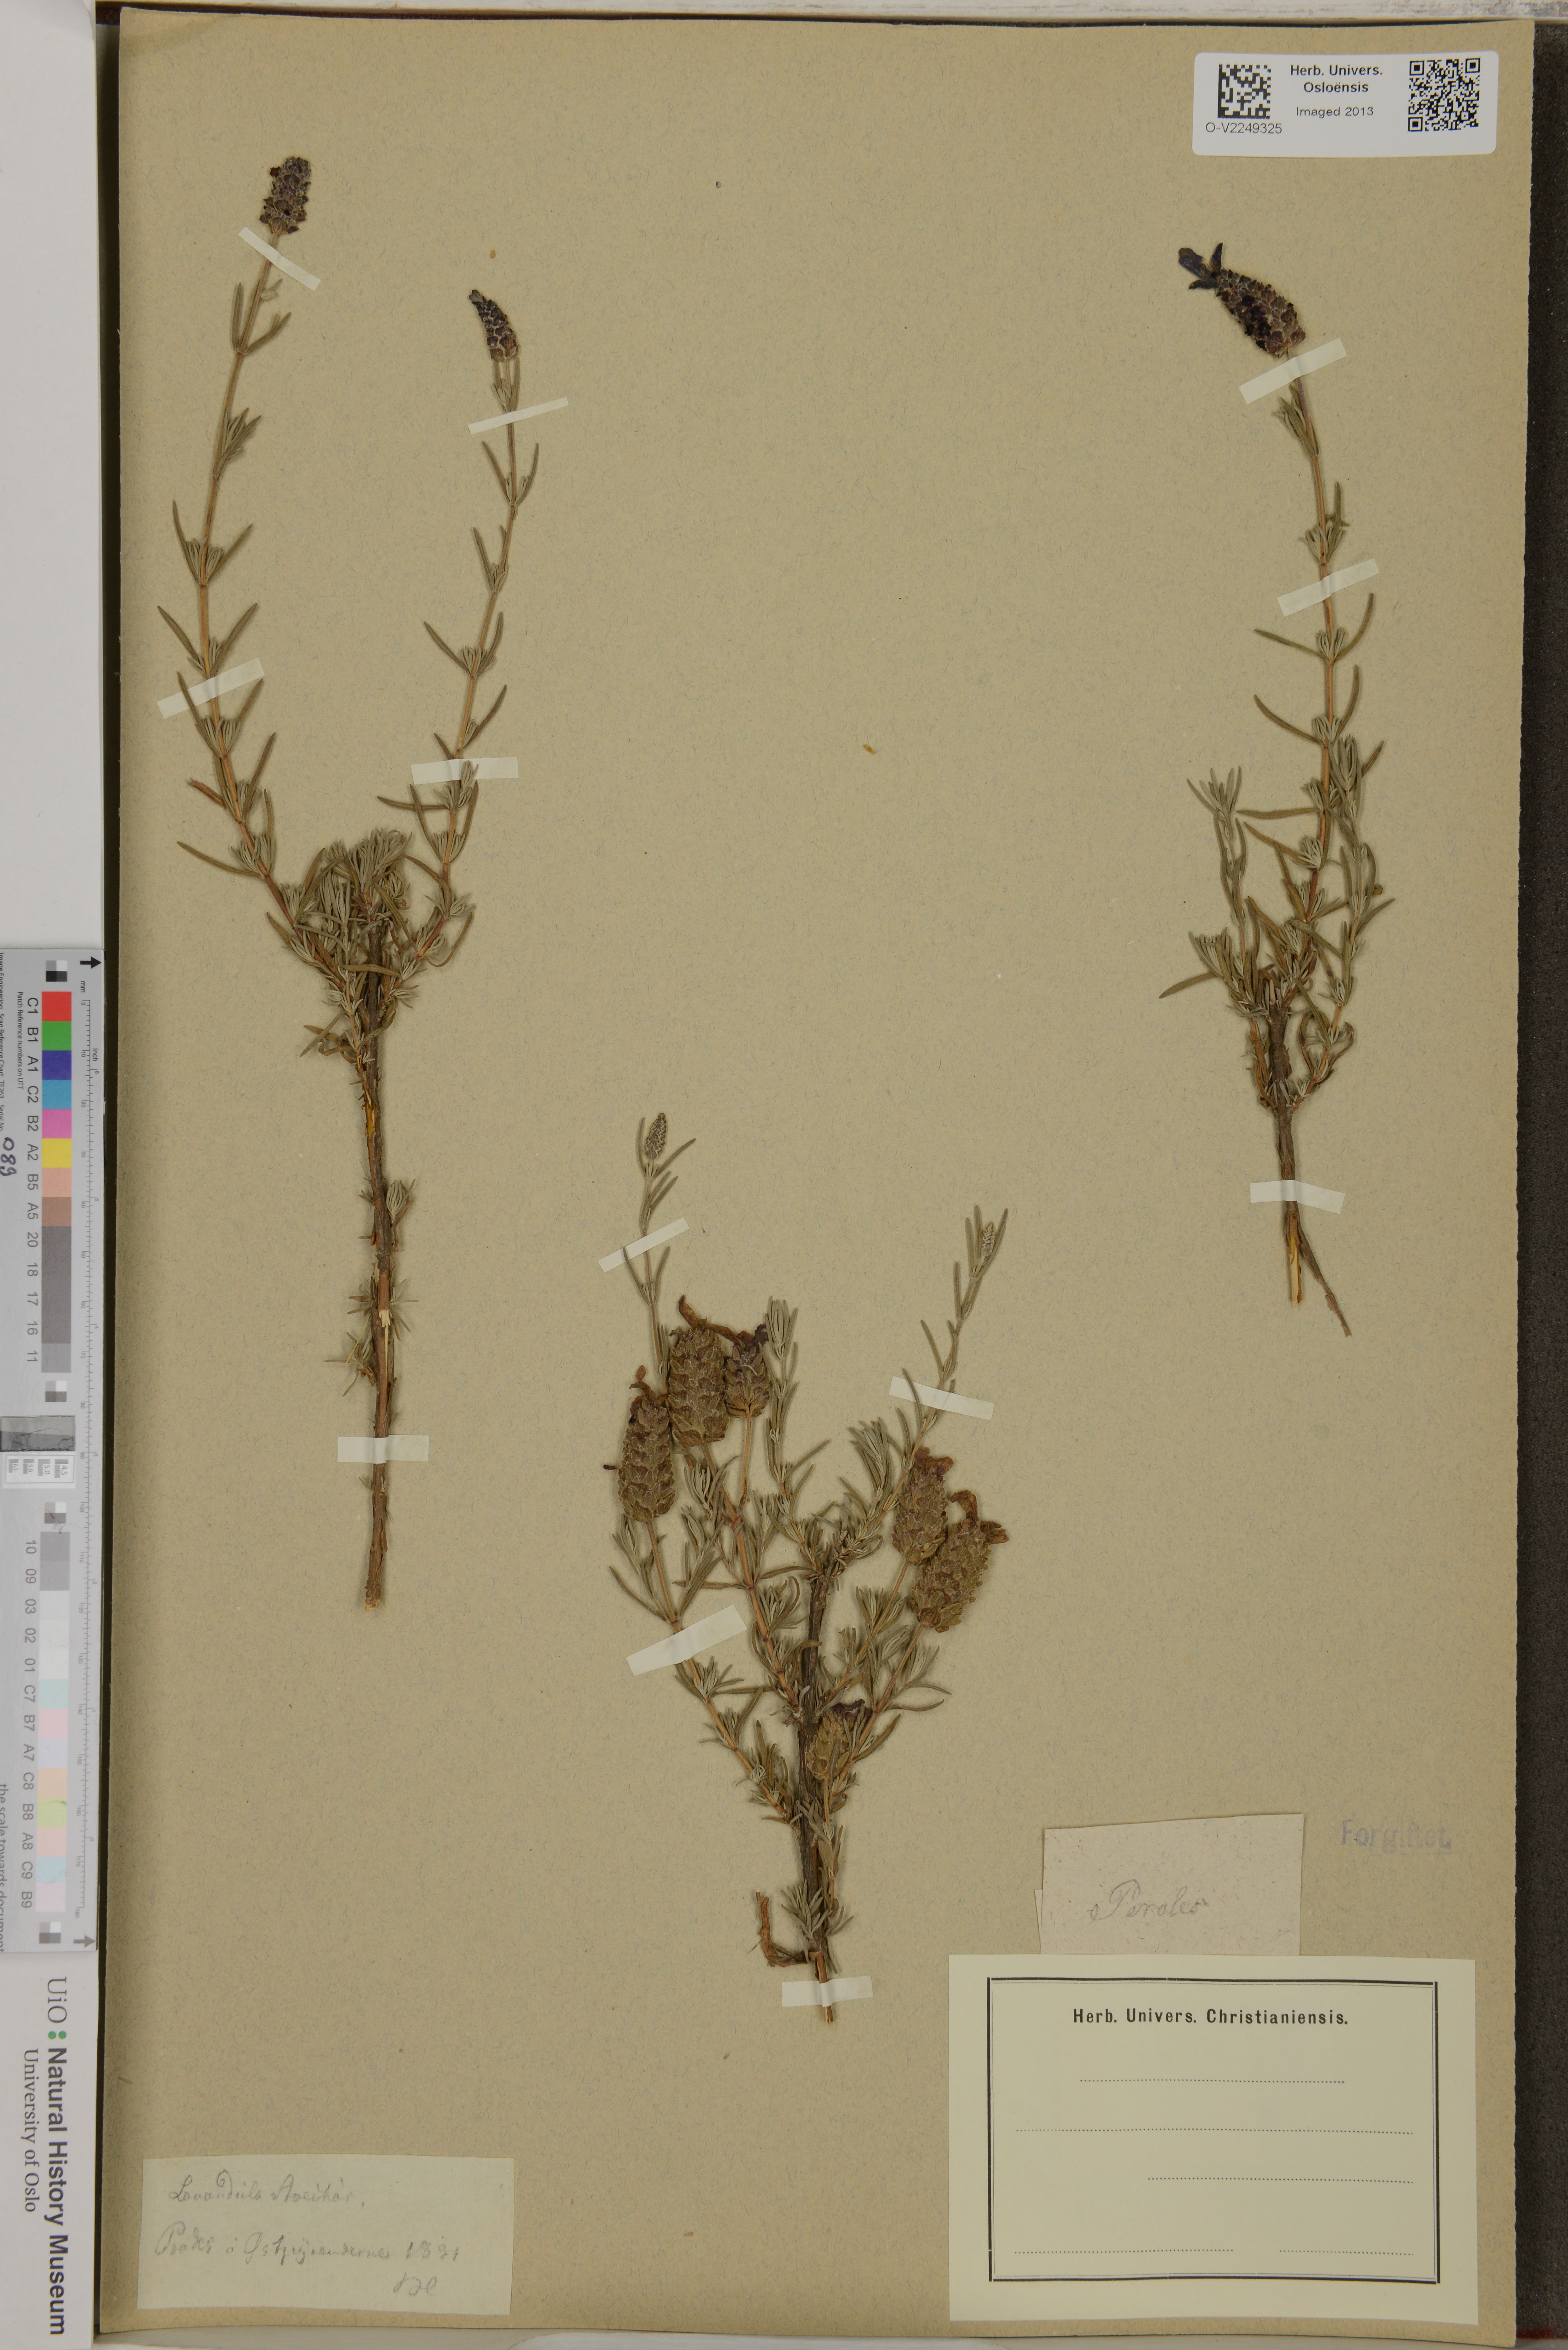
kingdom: Plantae
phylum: Tracheophyta
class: Magnoliopsida
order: Lamiales
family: Lamiaceae
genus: Lavandula
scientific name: Lavandula stoechas
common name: French lavender
